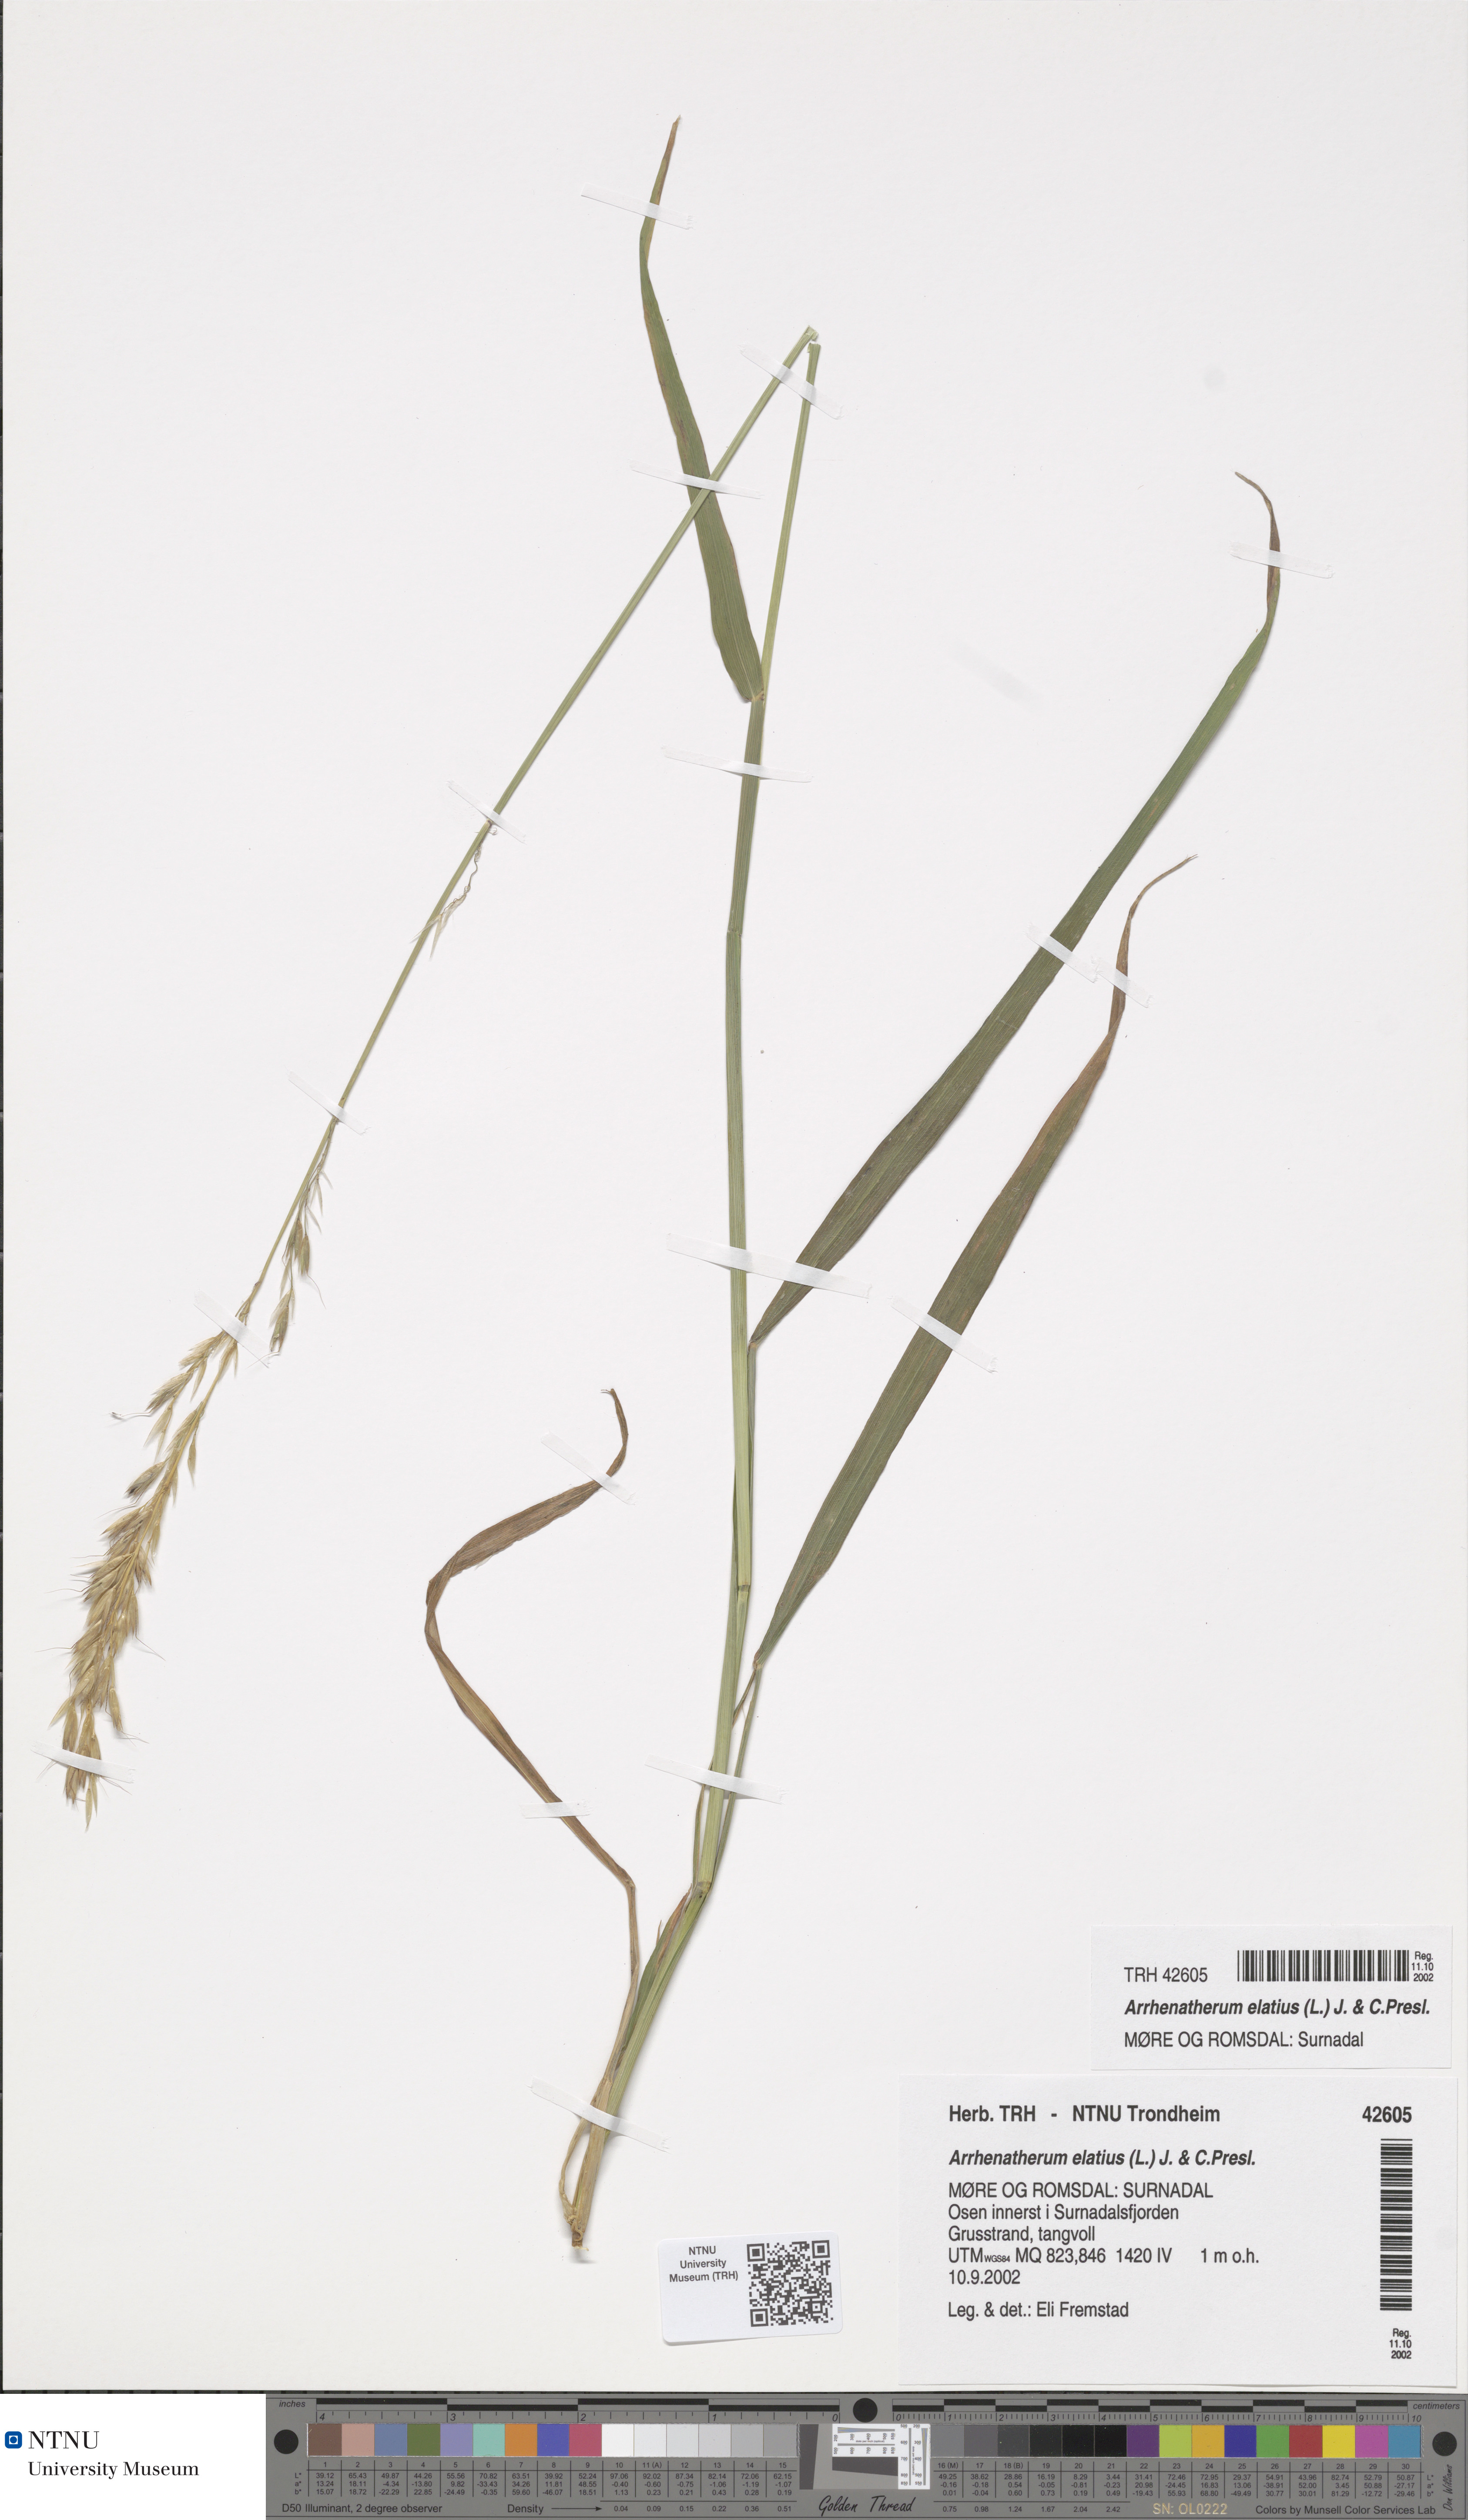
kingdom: Plantae
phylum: Tracheophyta
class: Liliopsida
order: Poales
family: Poaceae
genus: Arrhenatherum
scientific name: Arrhenatherum elatius
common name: Tall oatgrass
